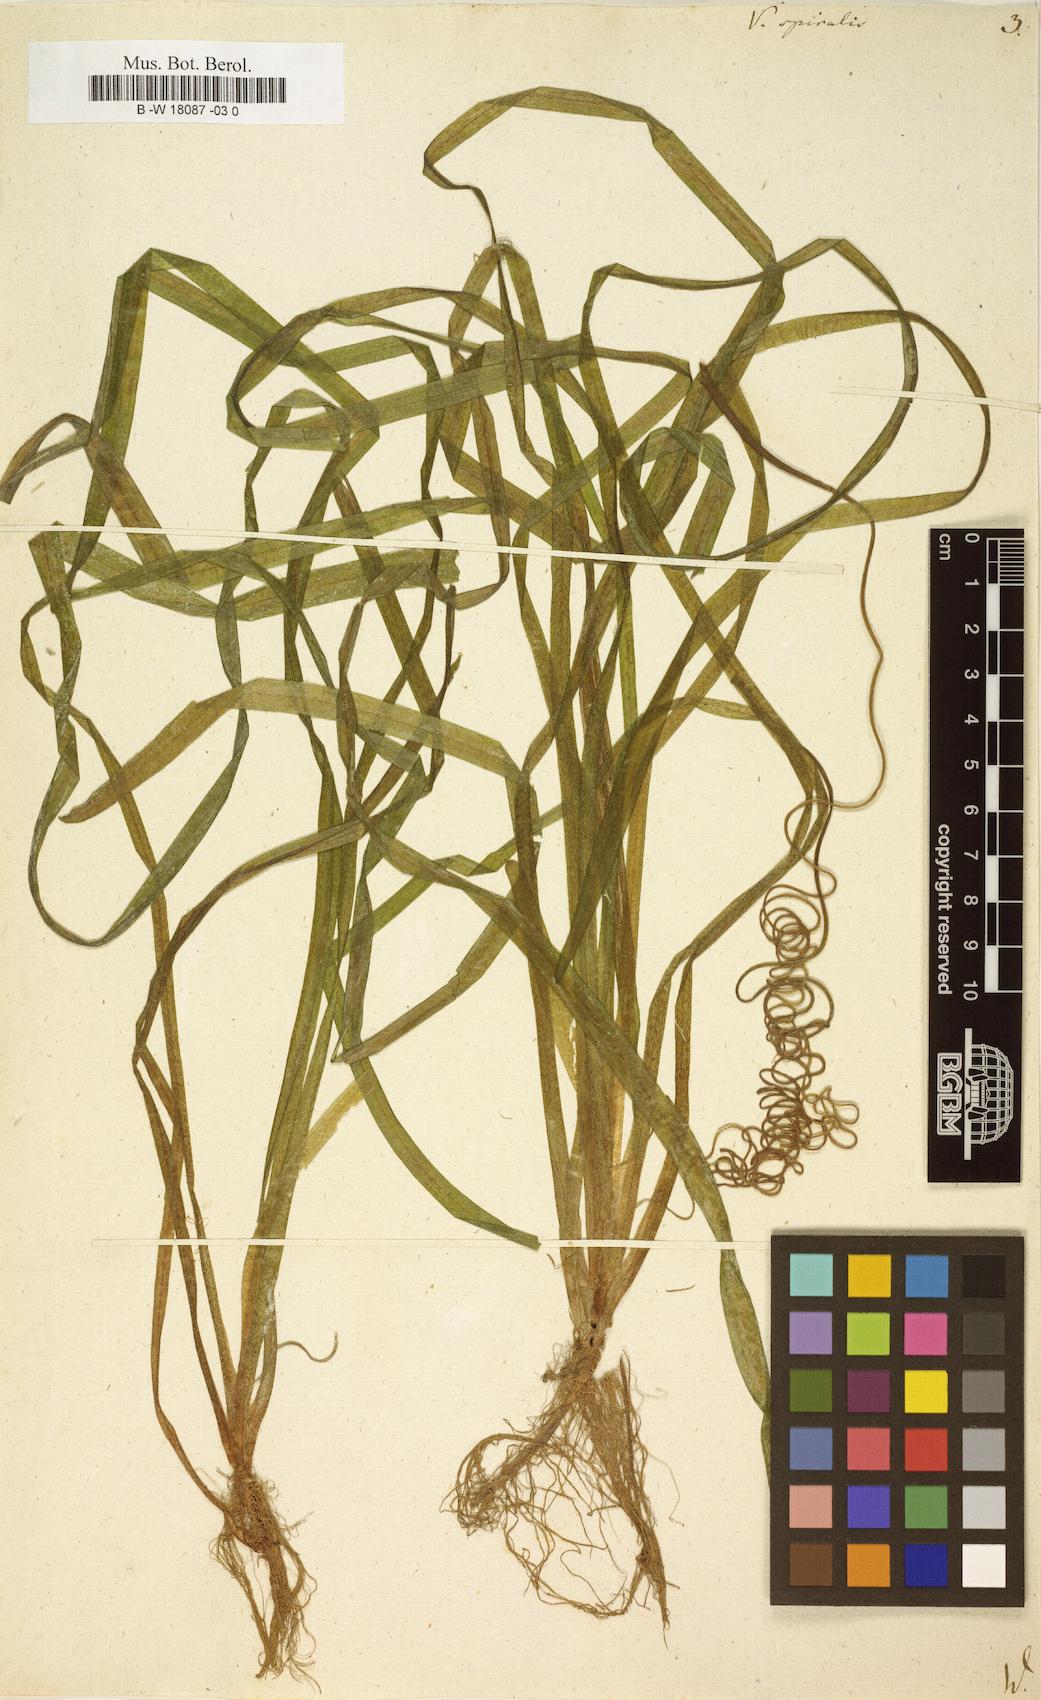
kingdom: Plantae
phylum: Tracheophyta
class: Liliopsida
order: Alismatales
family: Hydrocharitaceae
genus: Vallisneria
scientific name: Vallisneria spiralis
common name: Tapegrass
